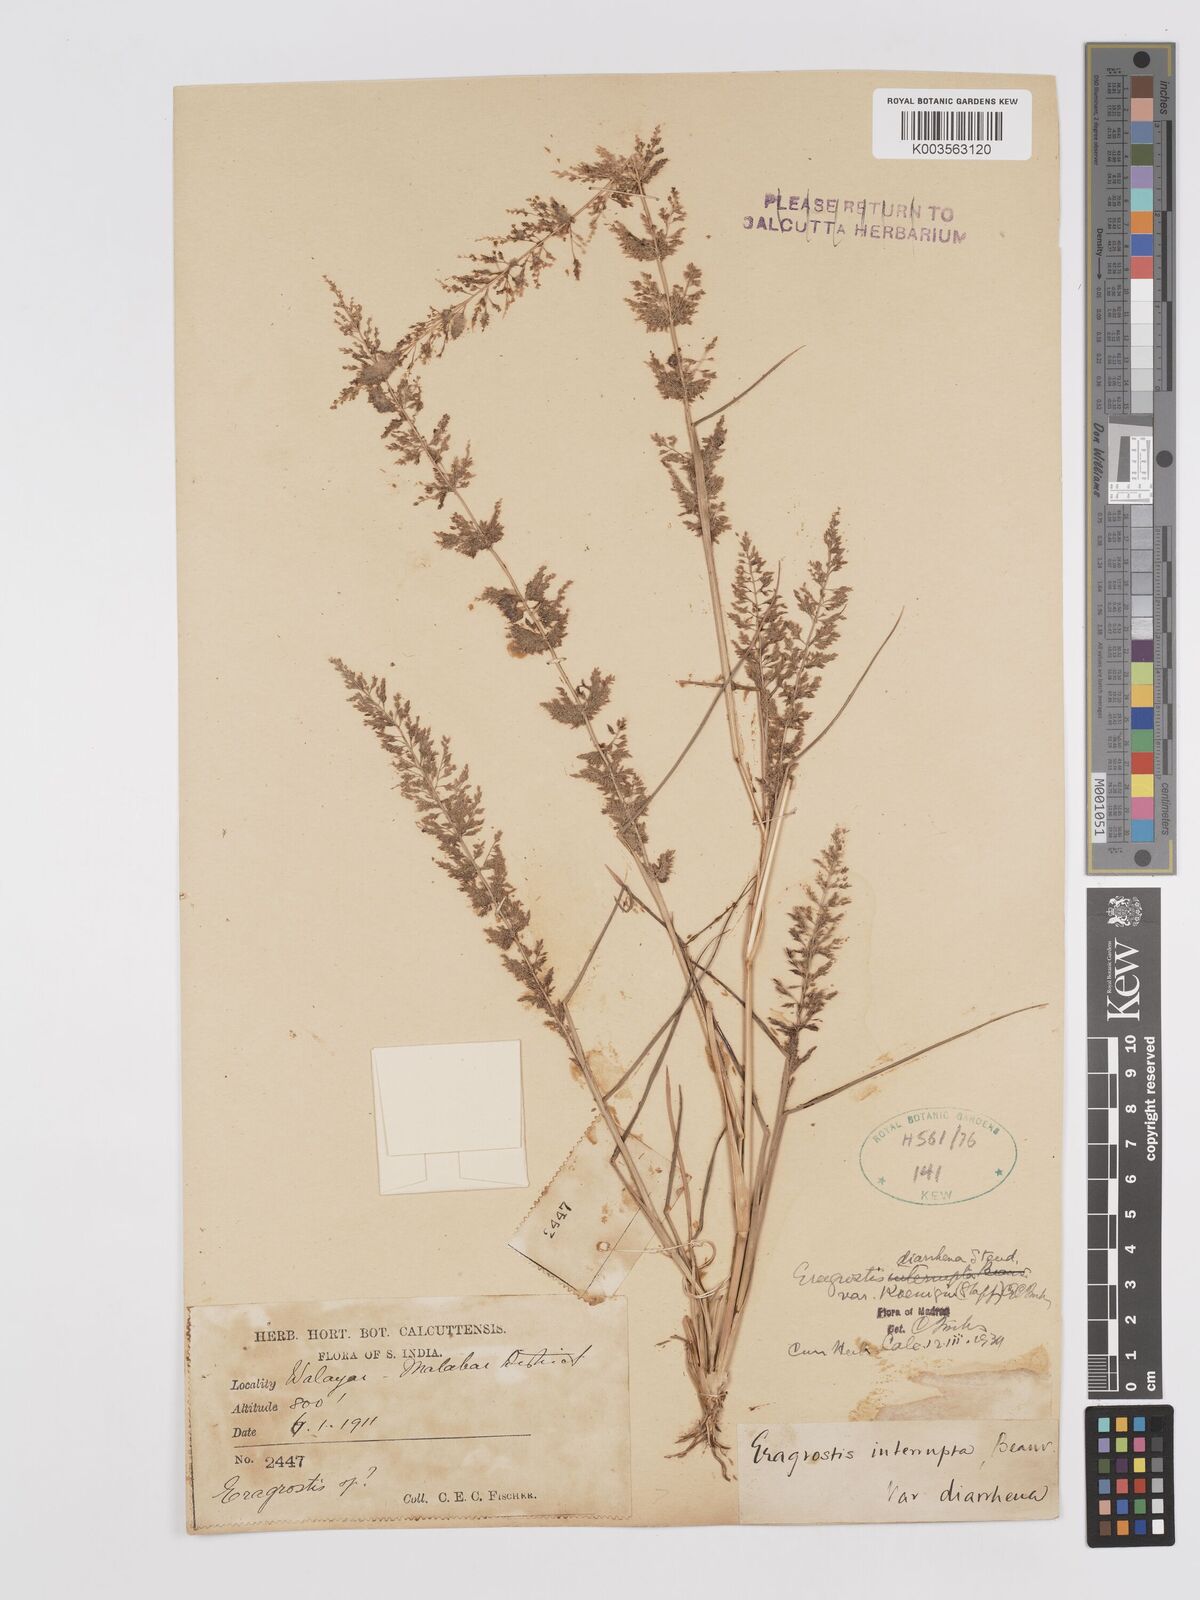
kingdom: Plantae
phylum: Tracheophyta
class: Liliopsida
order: Poales
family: Poaceae
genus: Eragrostis
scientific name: Eragrostis japonica
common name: Pond lovegrass
